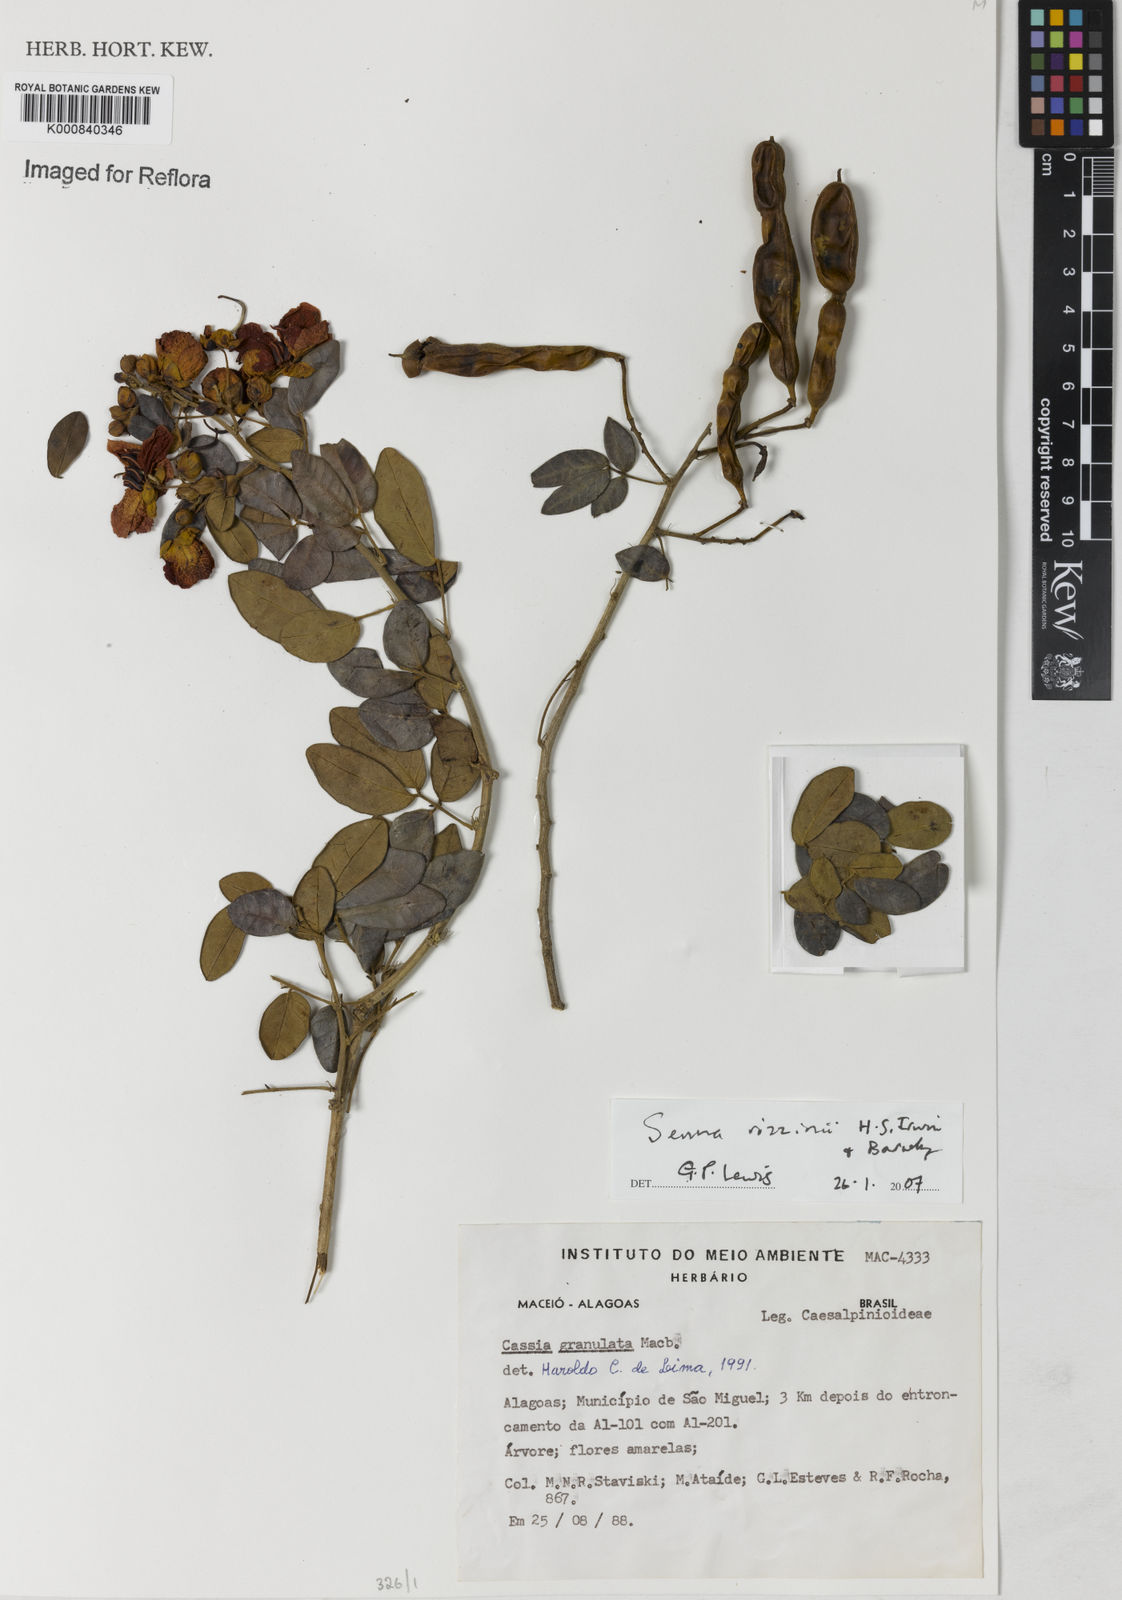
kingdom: Plantae
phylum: Tracheophyta
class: Magnoliopsida
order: Fabales
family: Fabaceae
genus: Senna
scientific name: Senna rizzinii
